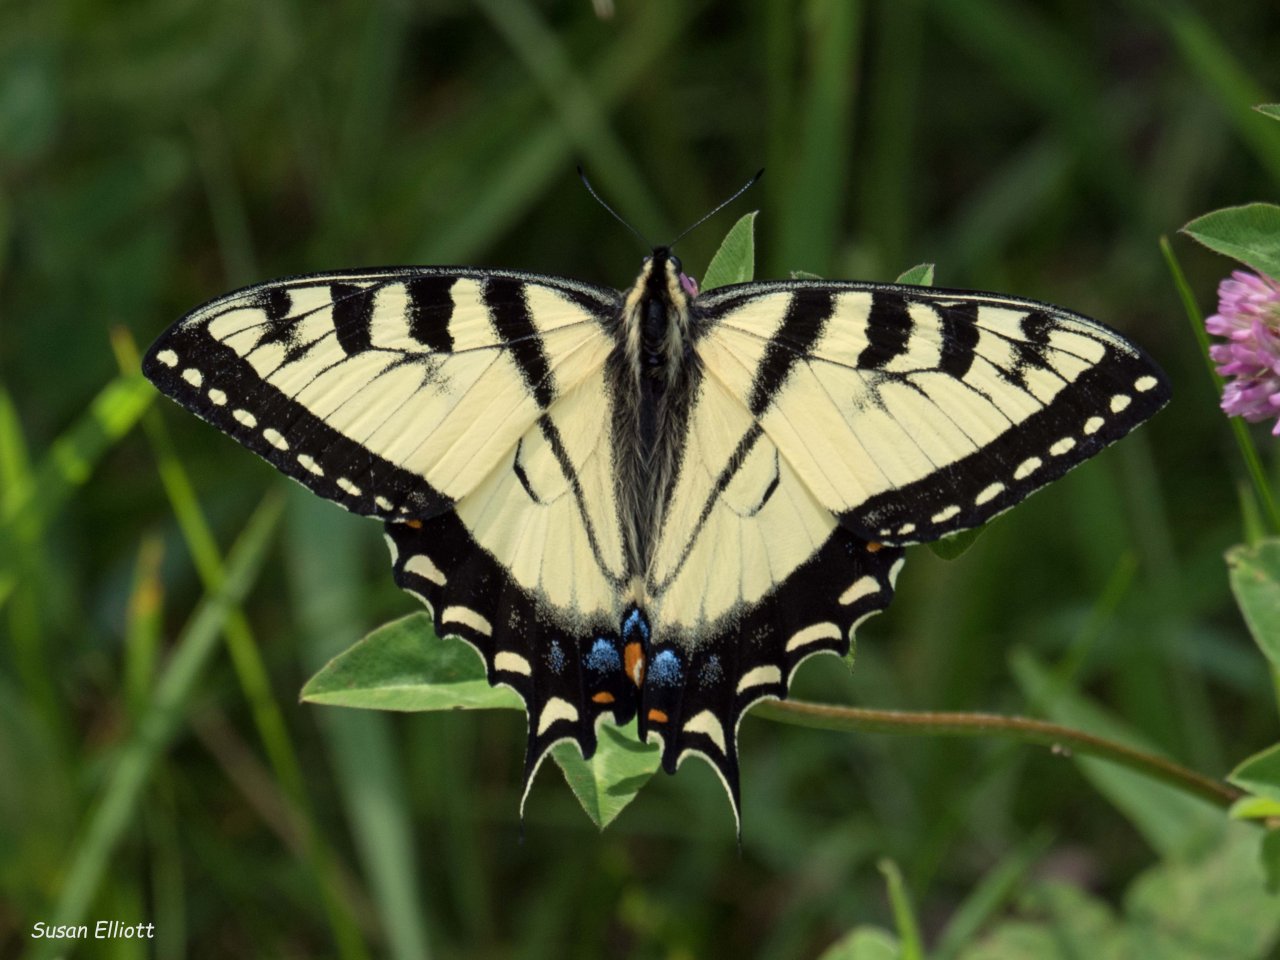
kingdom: Animalia
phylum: Arthropoda
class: Insecta
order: Lepidoptera
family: Papilionidae
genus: Pterourus
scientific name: Pterourus
